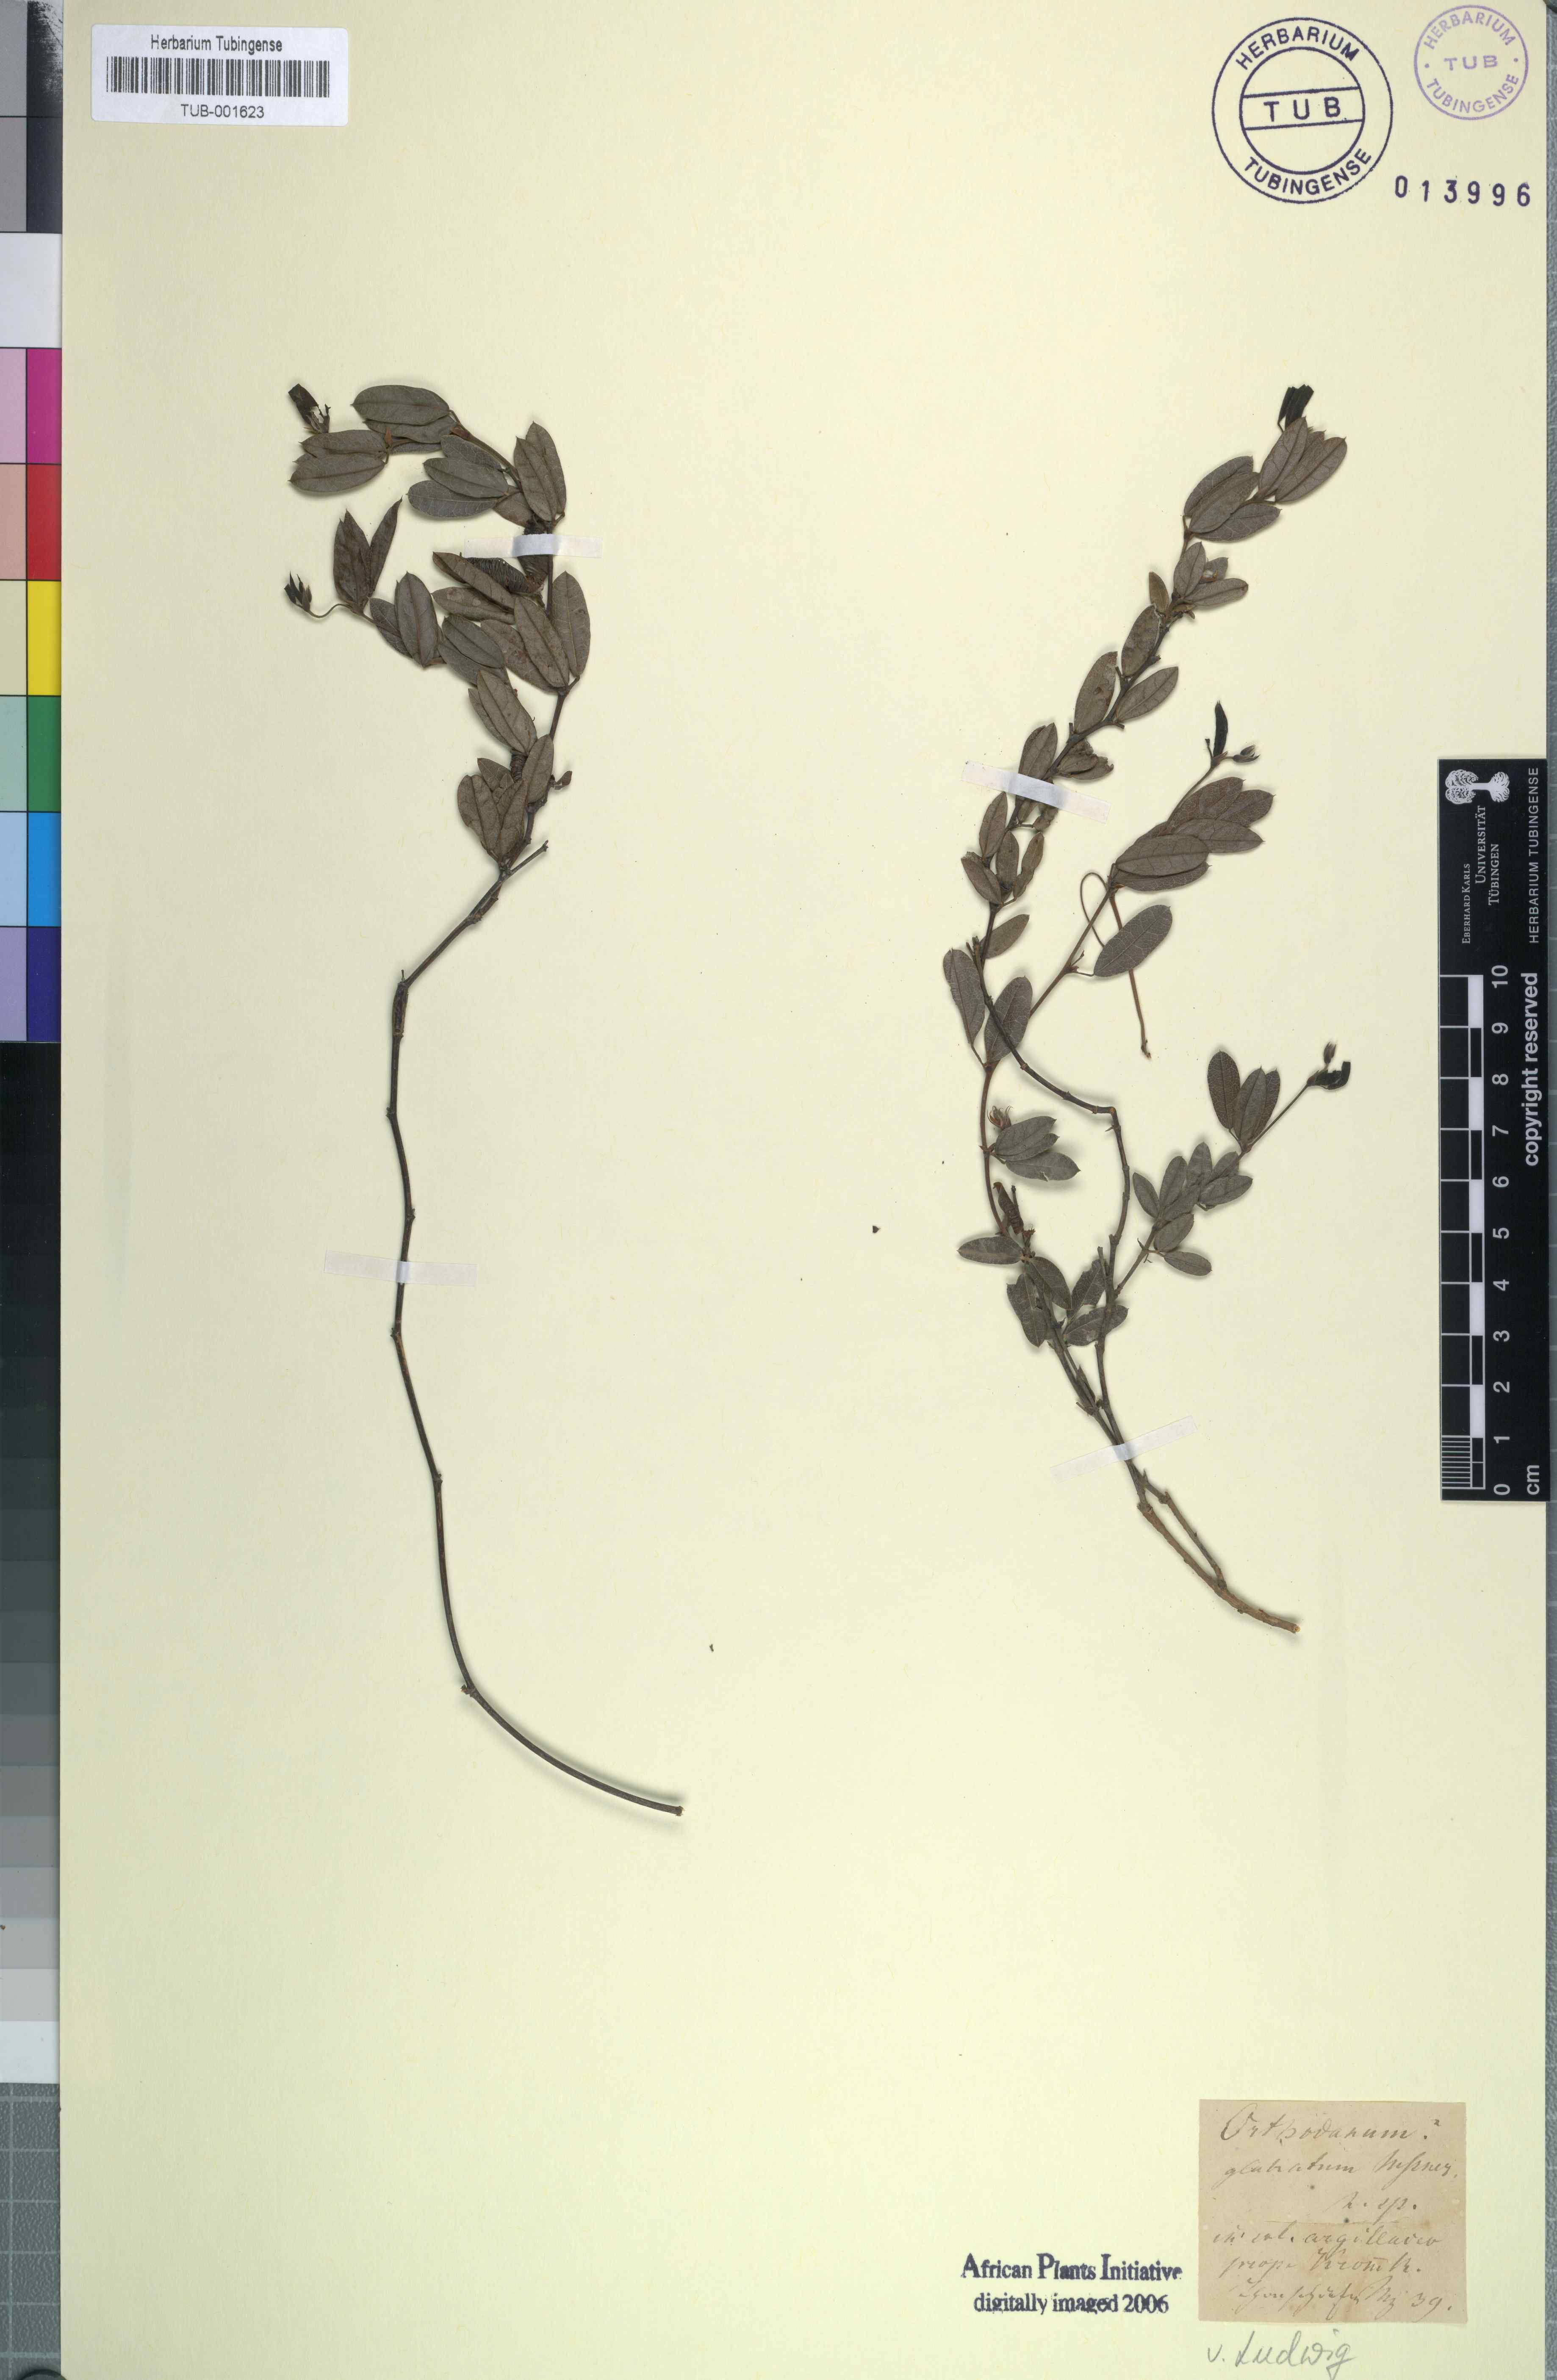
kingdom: Plantae
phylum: Tracheophyta
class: Magnoliopsida
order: Fabales
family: Fabaceae
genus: Rhynchosia
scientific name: Rhynchosia sordida
